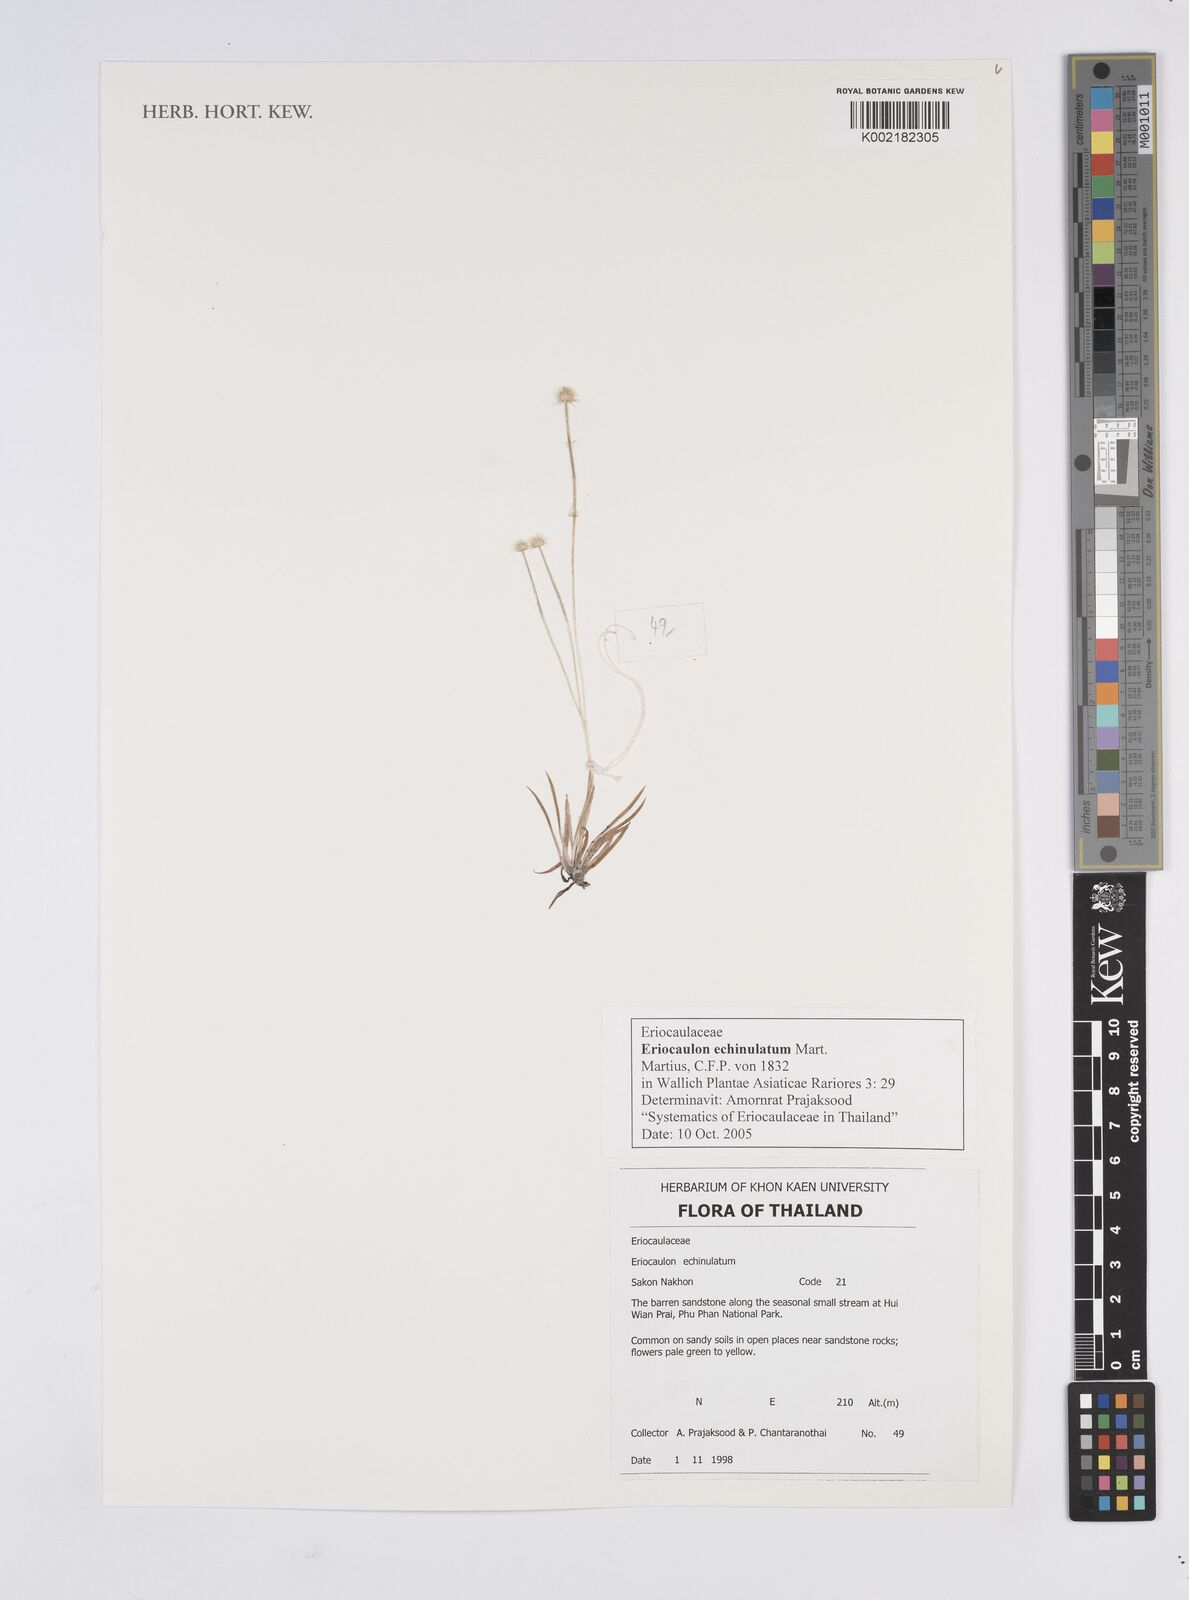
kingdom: Plantae
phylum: Tracheophyta
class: Liliopsida
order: Poales
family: Eriocaulaceae
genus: Eriocaulon
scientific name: Eriocaulon echinulatum
